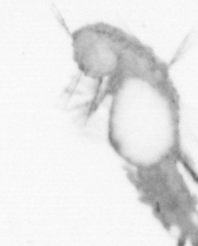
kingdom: Animalia
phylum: Annelida
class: Polychaeta
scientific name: Polychaeta
